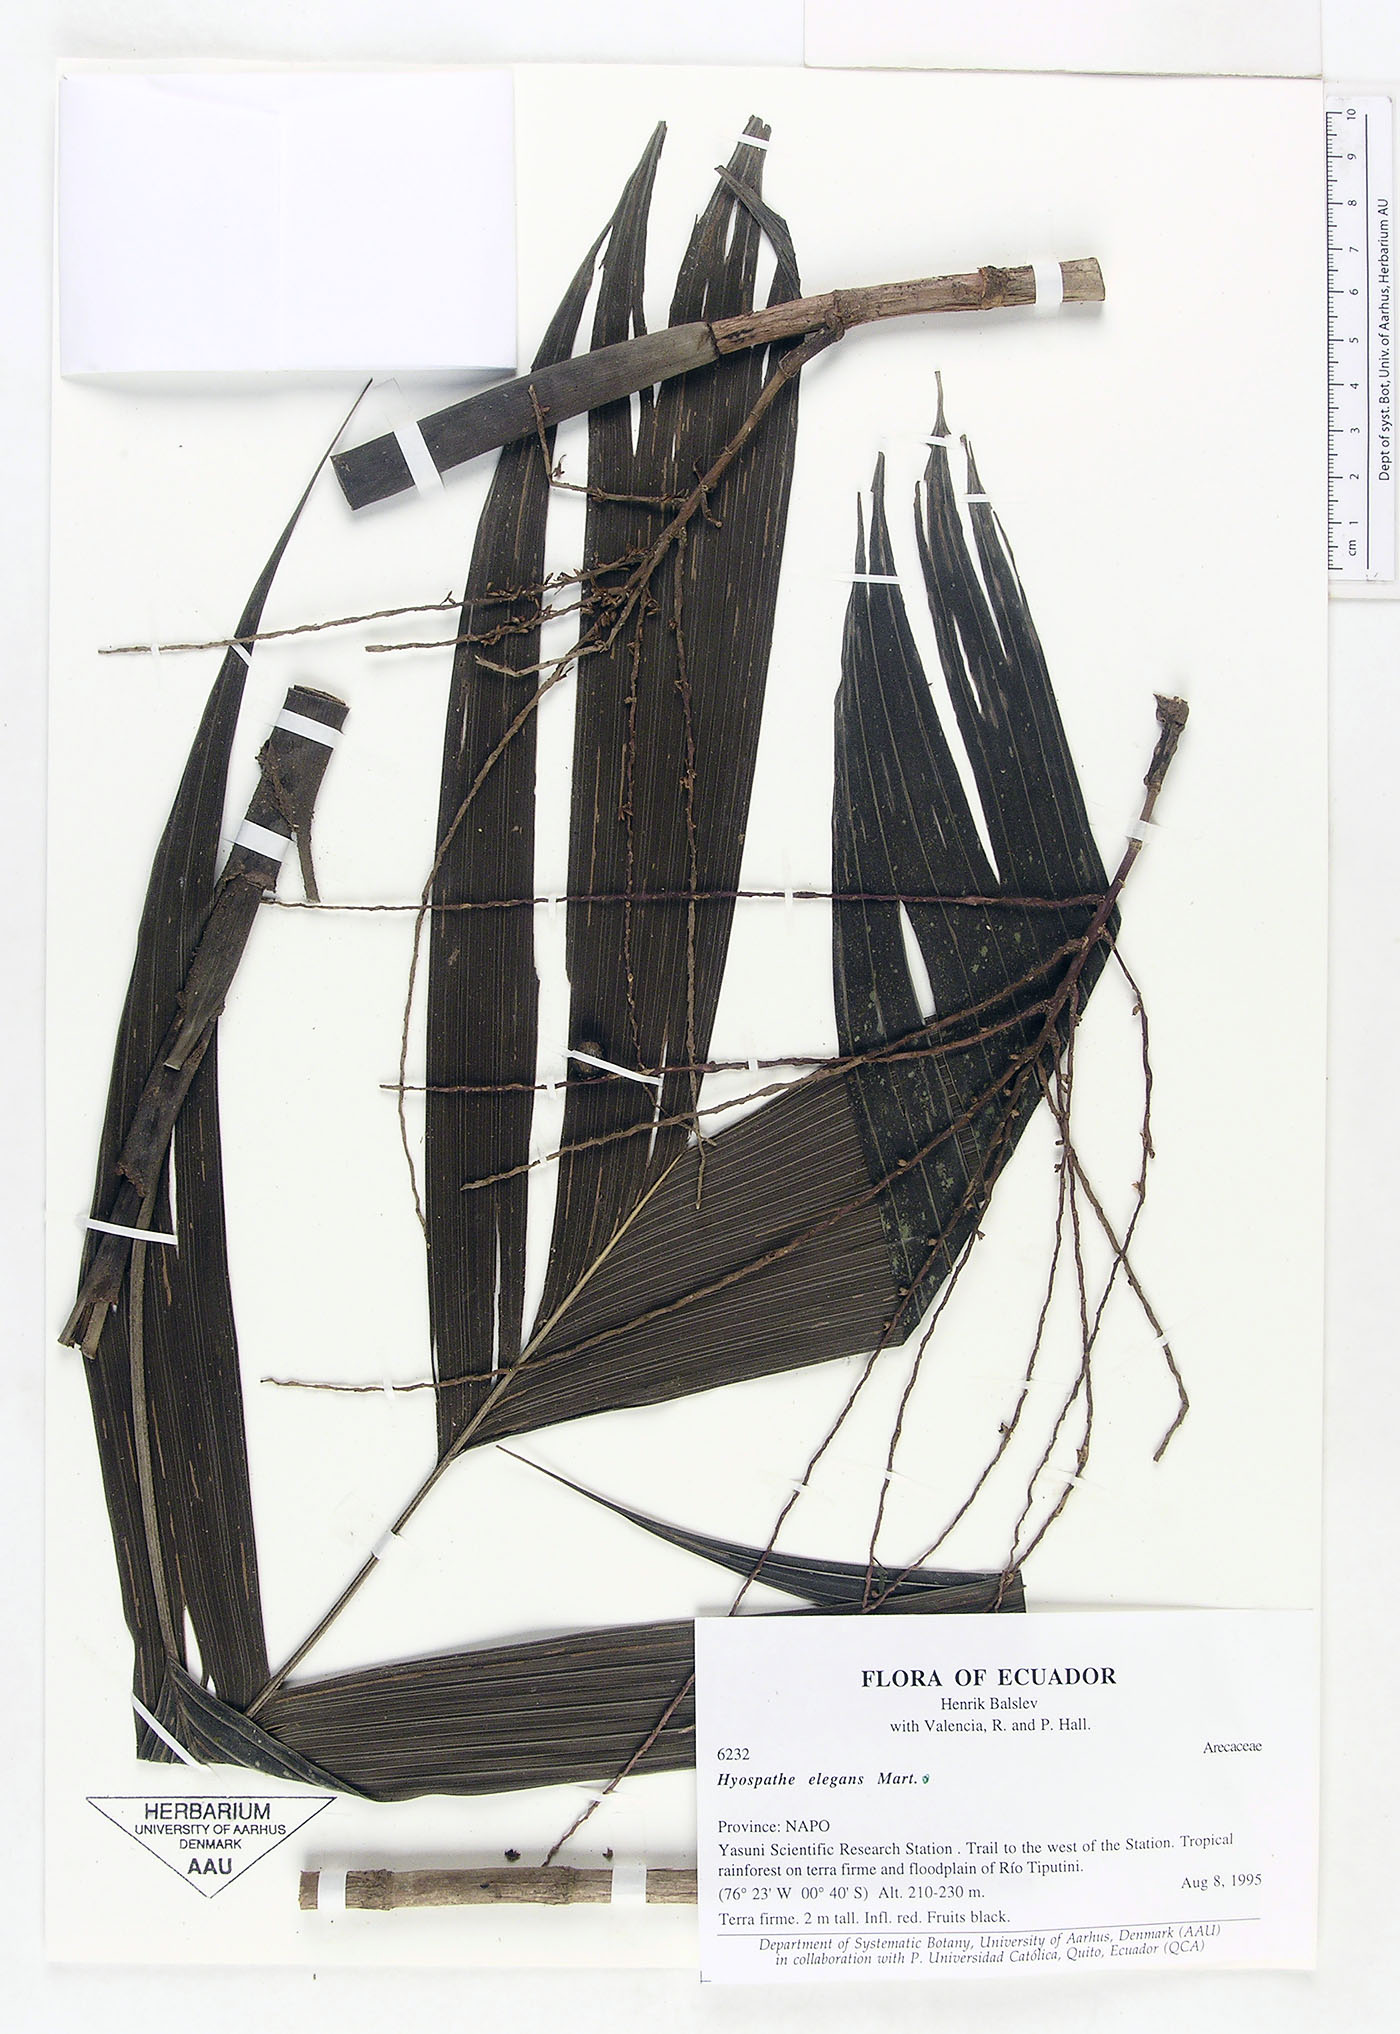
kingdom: Plantae
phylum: Tracheophyta
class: Liliopsida
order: Arecales
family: Arecaceae
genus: Hyospathe
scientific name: Hyospathe elegans
